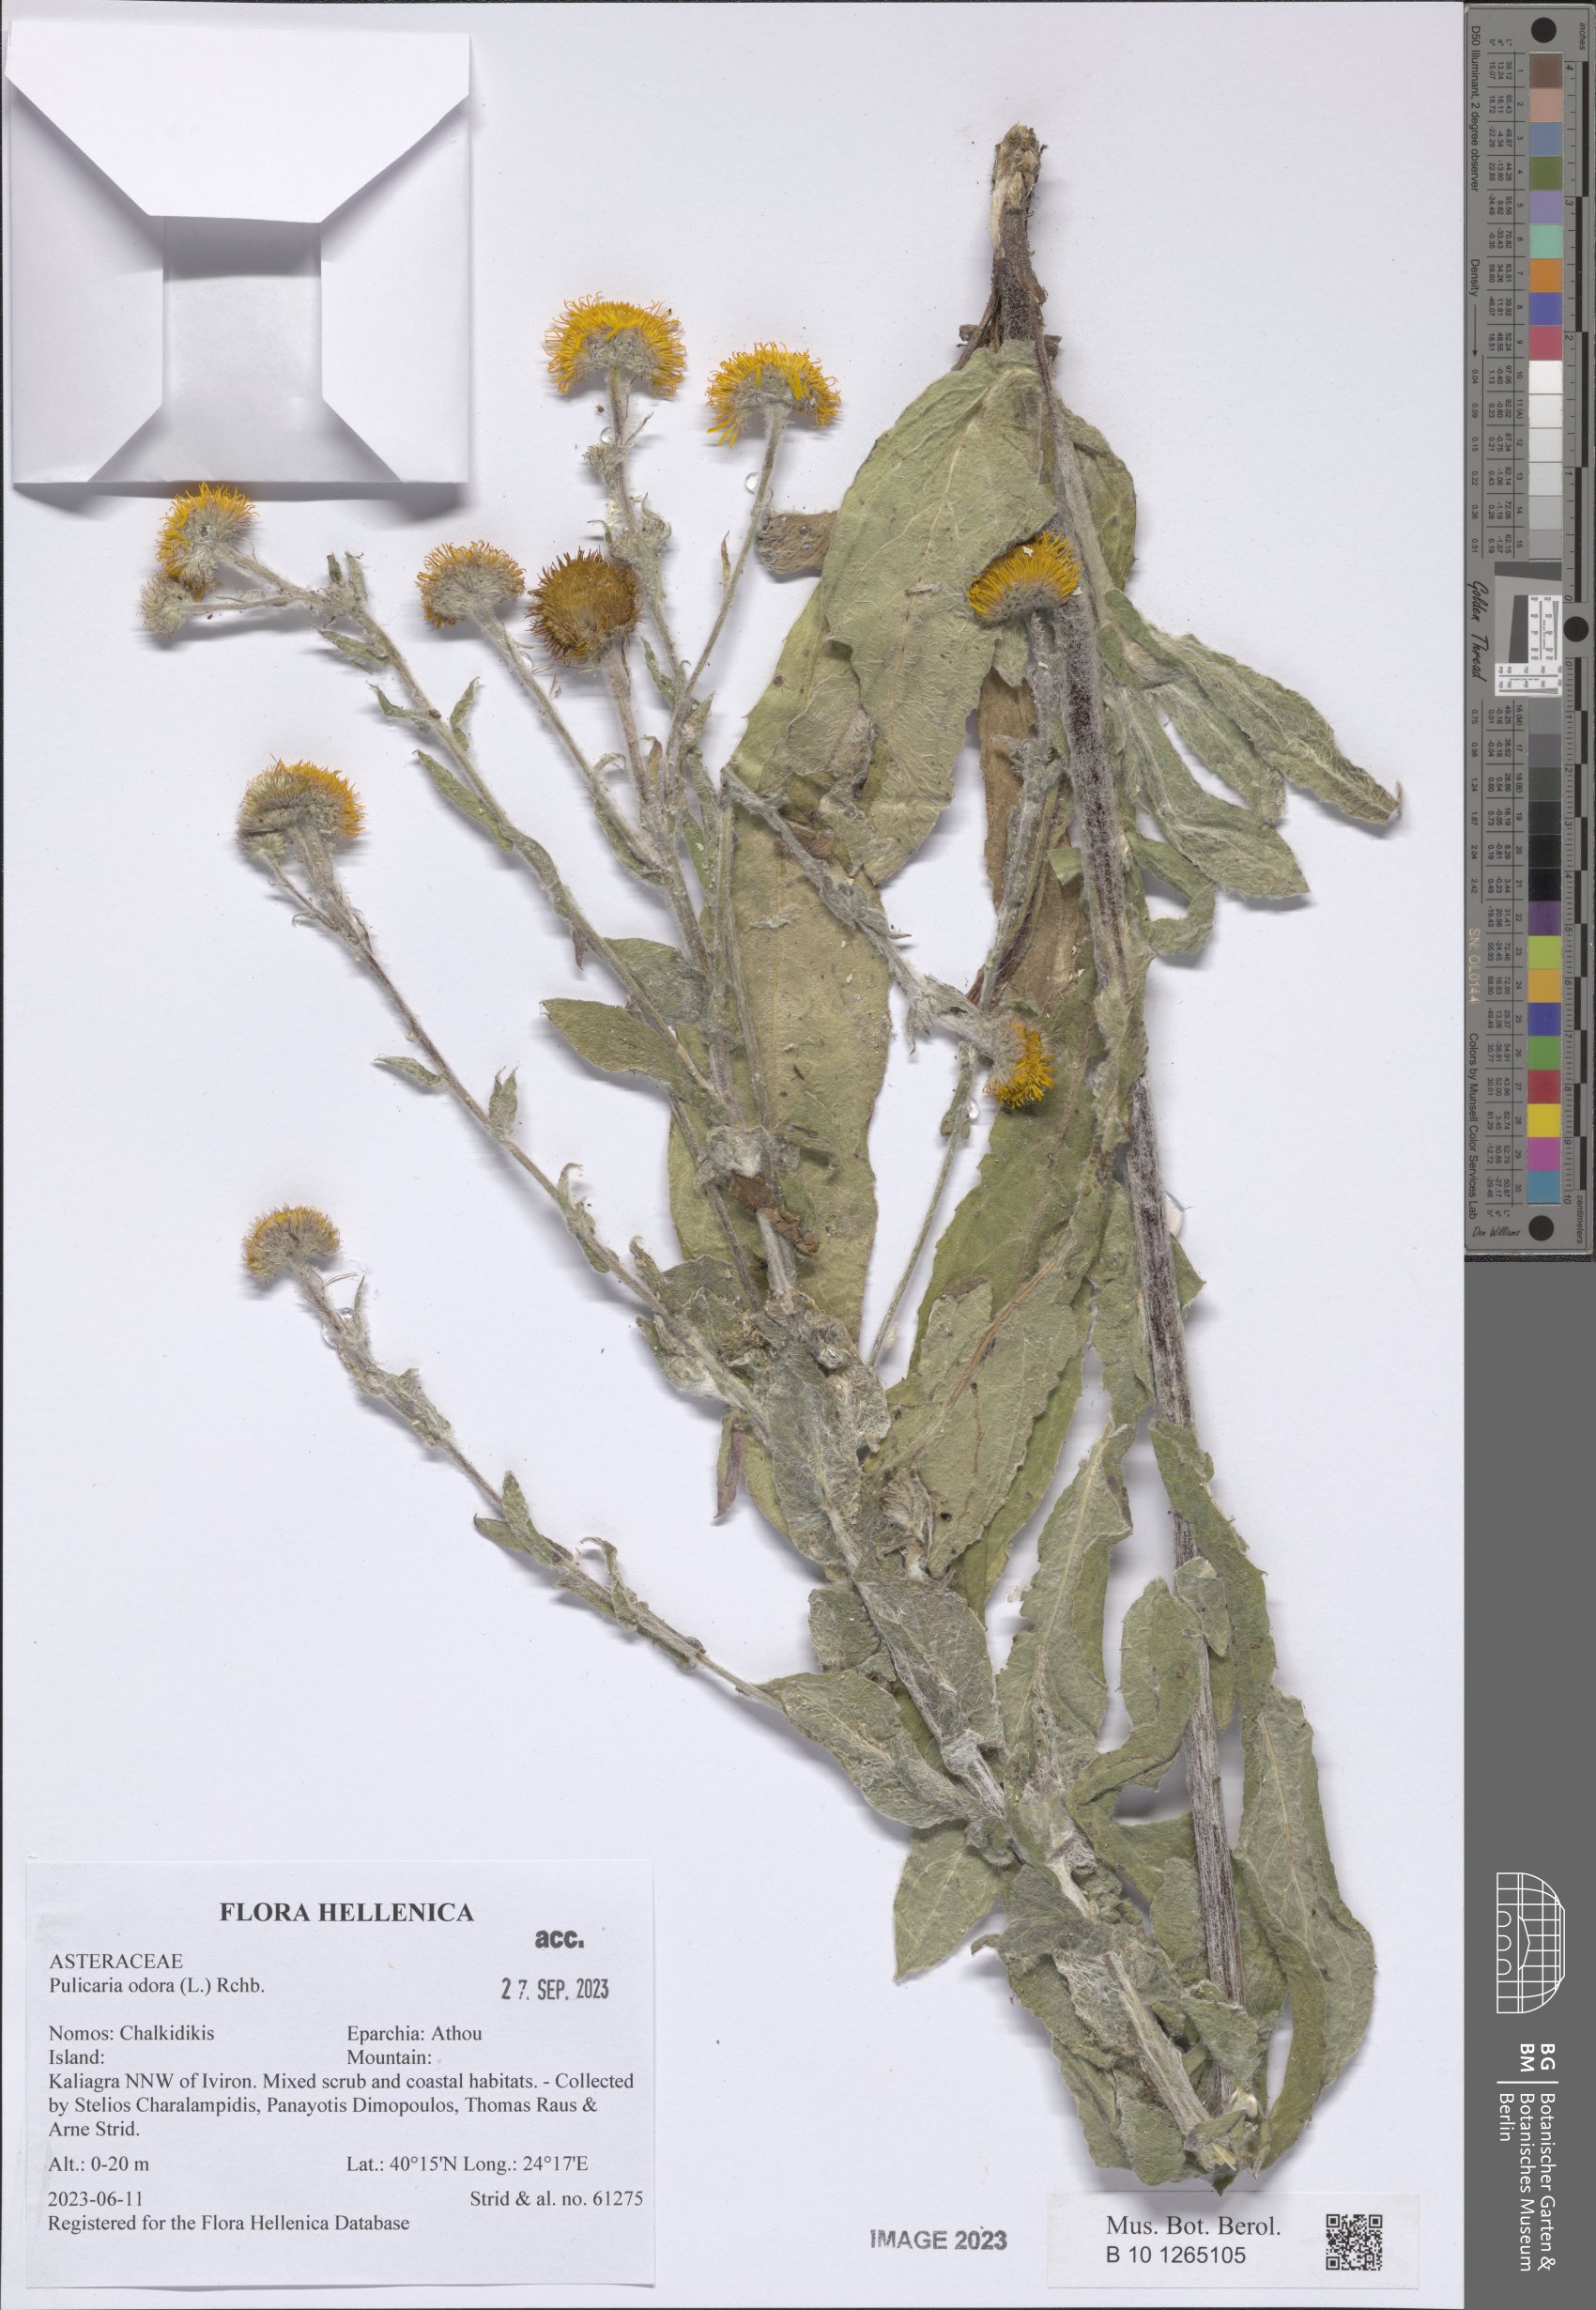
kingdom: Plantae
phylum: Tracheophyta
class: Magnoliopsida
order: Asterales
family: Asteraceae
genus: Pulicaria
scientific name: Pulicaria odora
